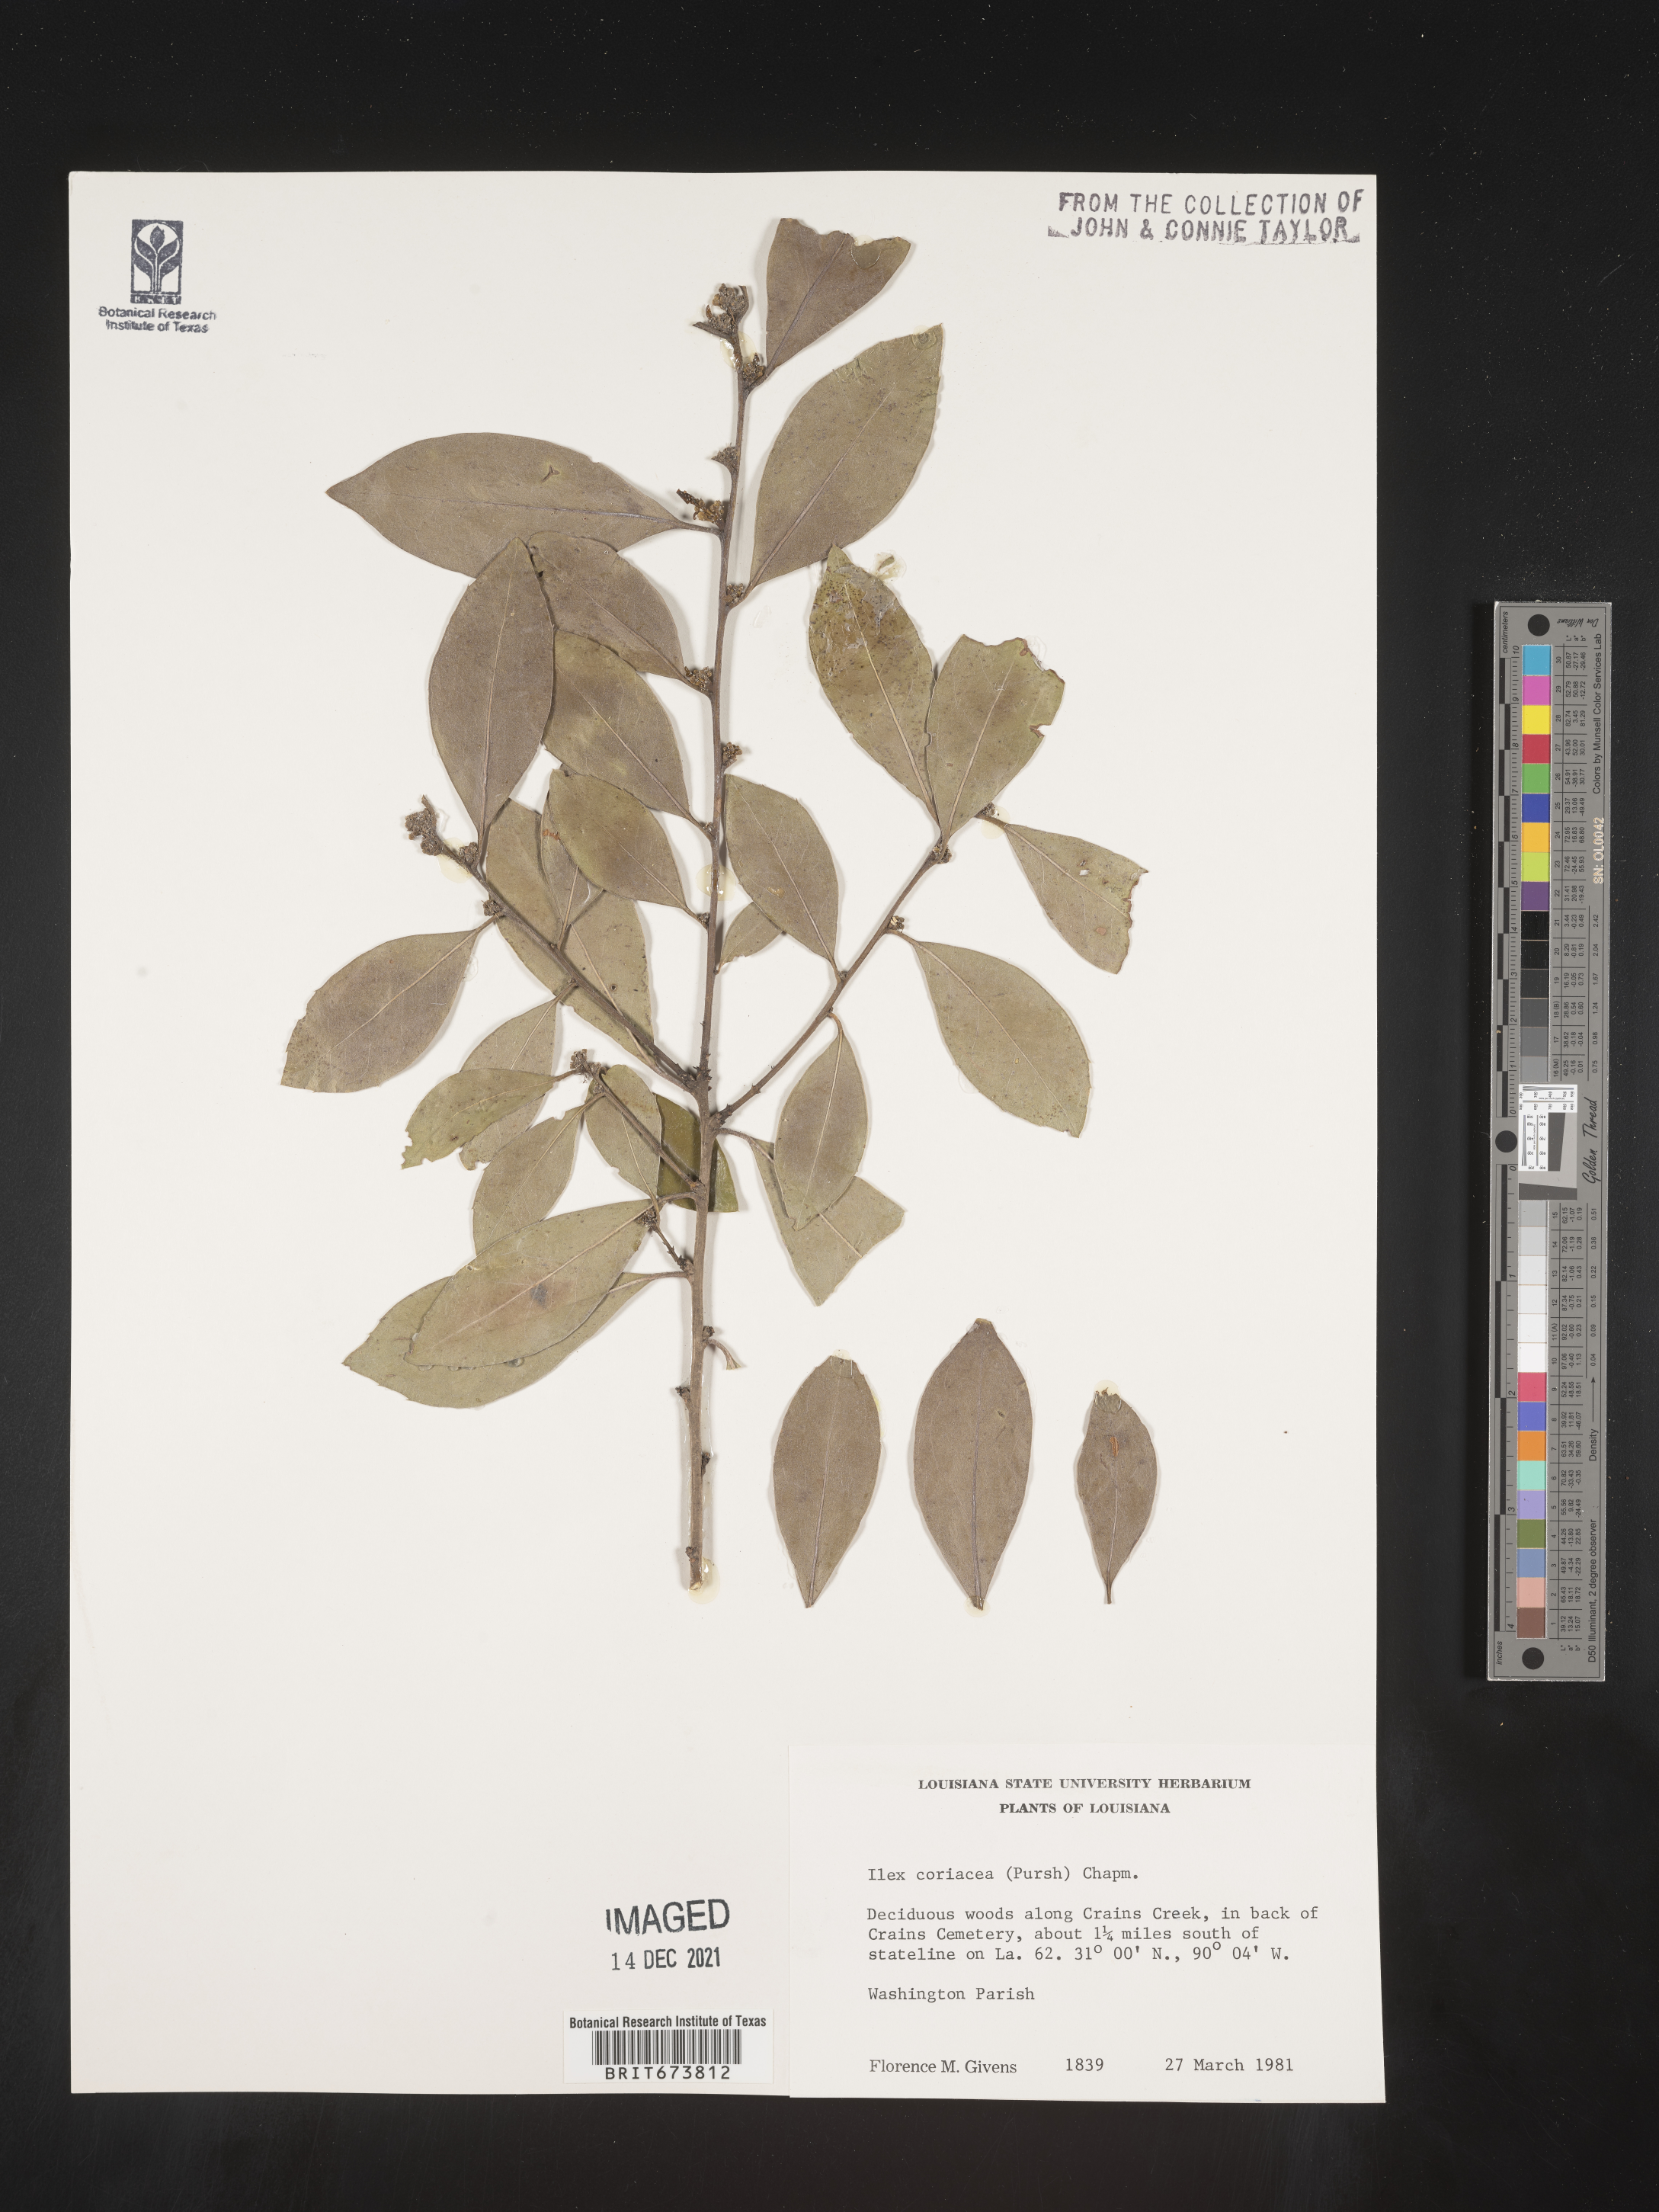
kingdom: Plantae
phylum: Tracheophyta
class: Magnoliopsida
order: Aquifoliales
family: Aquifoliaceae
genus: Ilex
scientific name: Ilex coriacea
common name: Sweet gallberry
